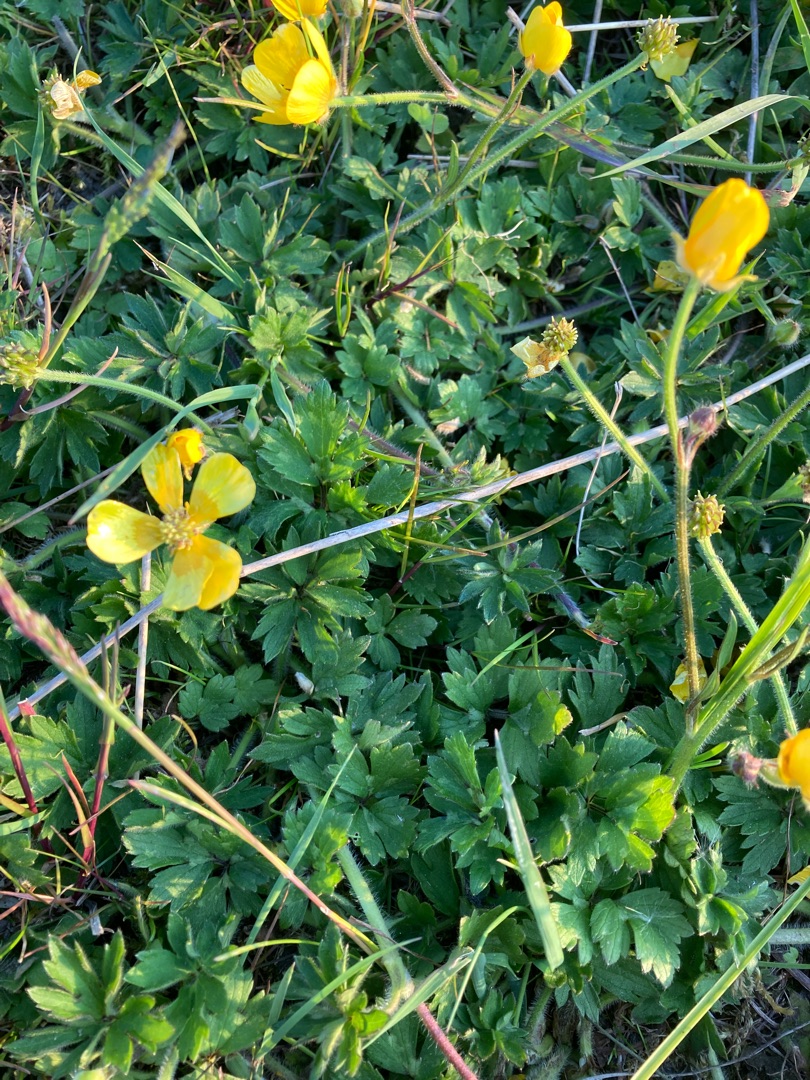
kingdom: Plantae
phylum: Tracheophyta
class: Magnoliopsida
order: Ranunculales
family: Ranunculaceae
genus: Ranunculus
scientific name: Ranunculus repens
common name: Lav ranunkel
